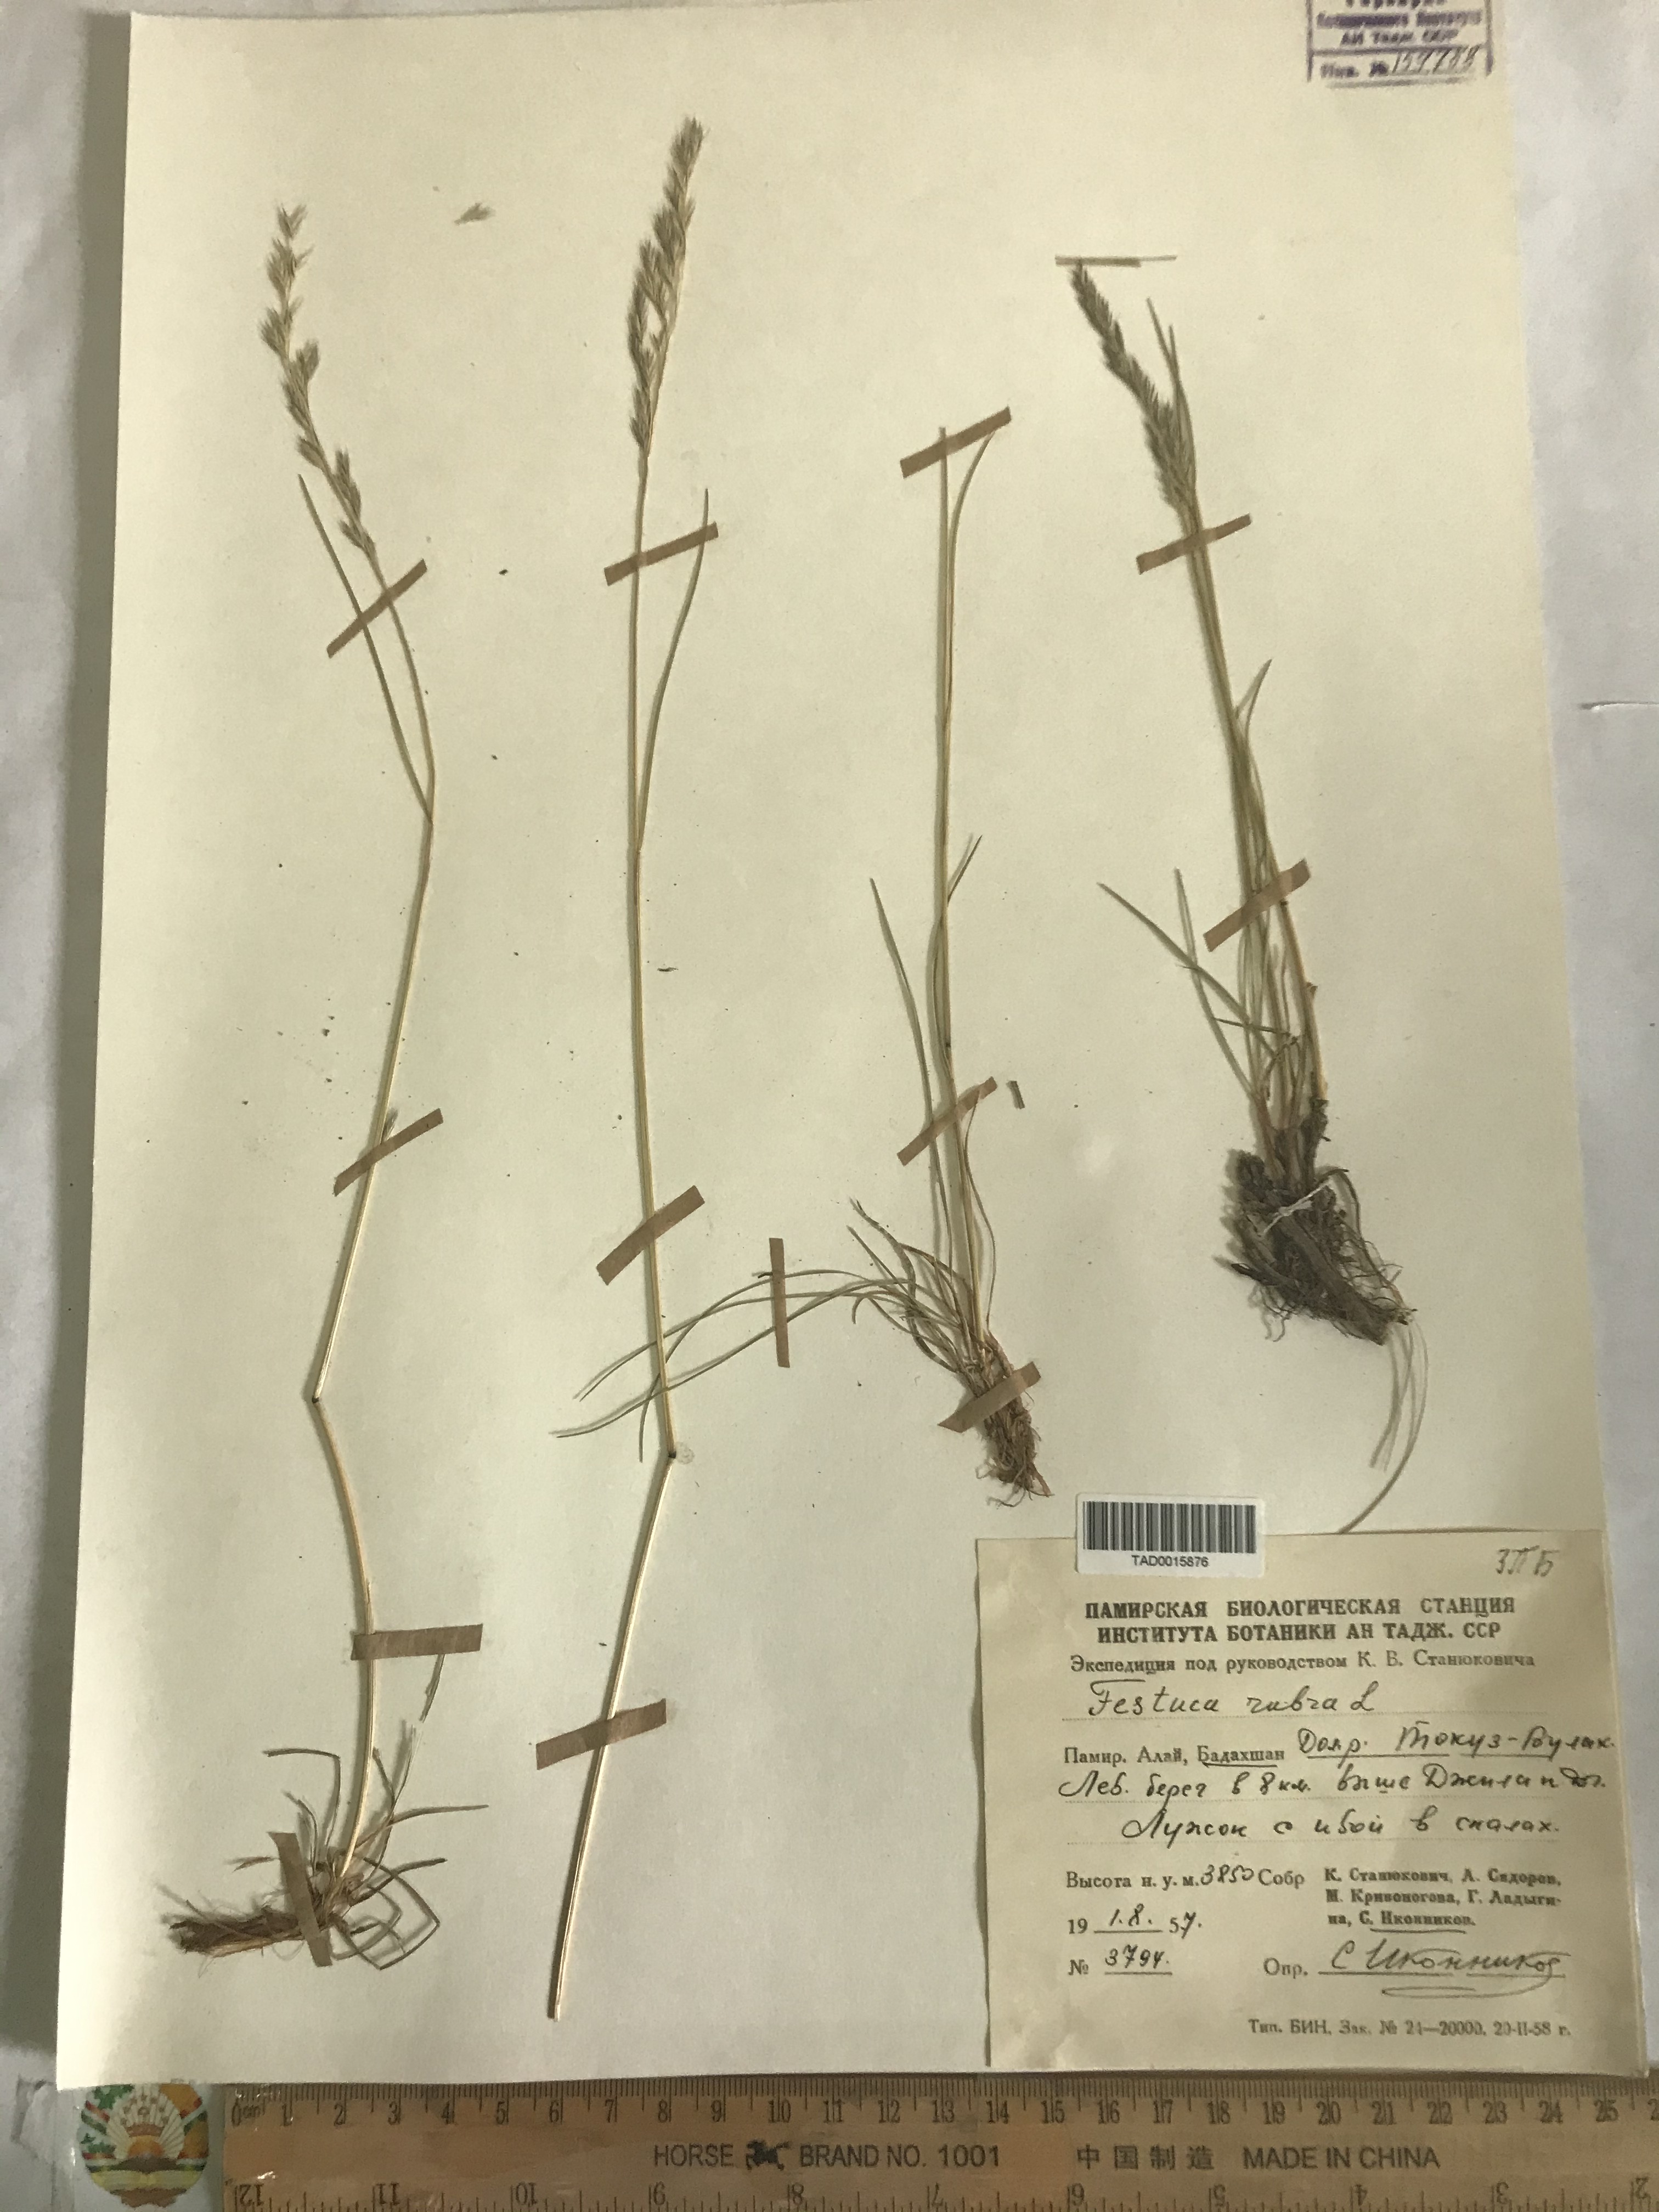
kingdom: Plantae
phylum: Tracheophyta
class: Liliopsida
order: Poales
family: Poaceae
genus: Festuca
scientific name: Festuca rubra
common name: Red fescue
